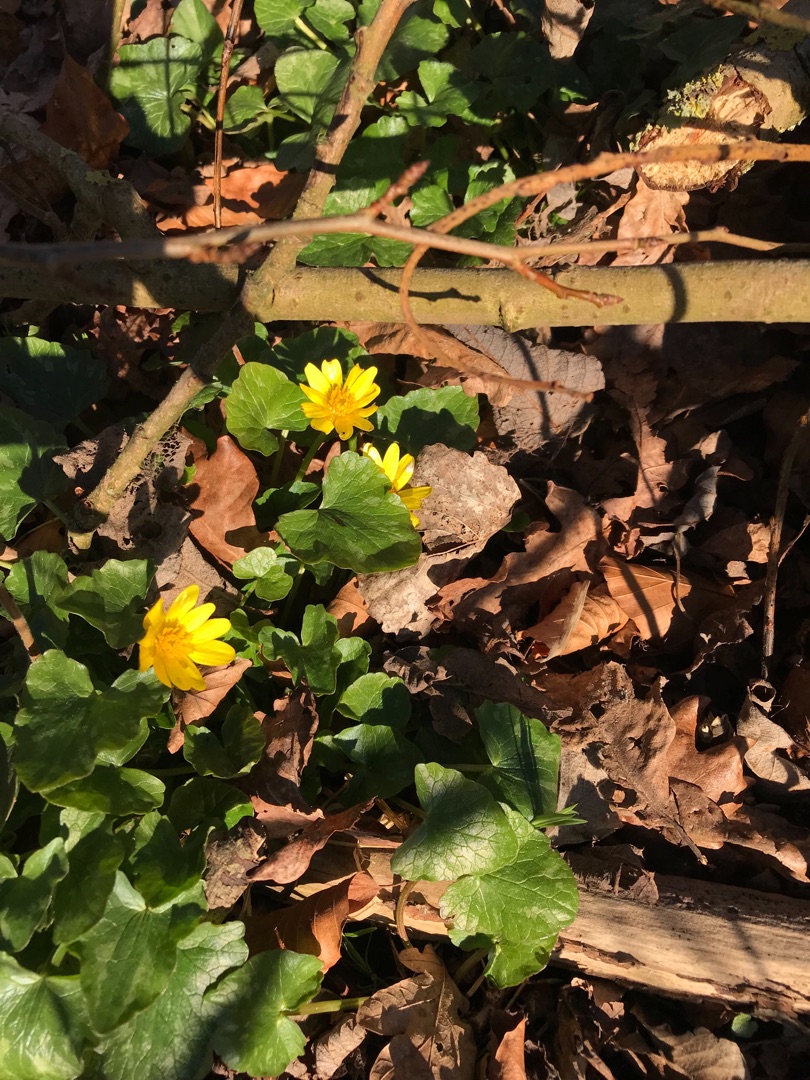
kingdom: Plantae
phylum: Tracheophyta
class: Magnoliopsida
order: Ranunculales
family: Ranunculaceae
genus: Ficaria
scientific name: Ficaria verna
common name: Vorterod
